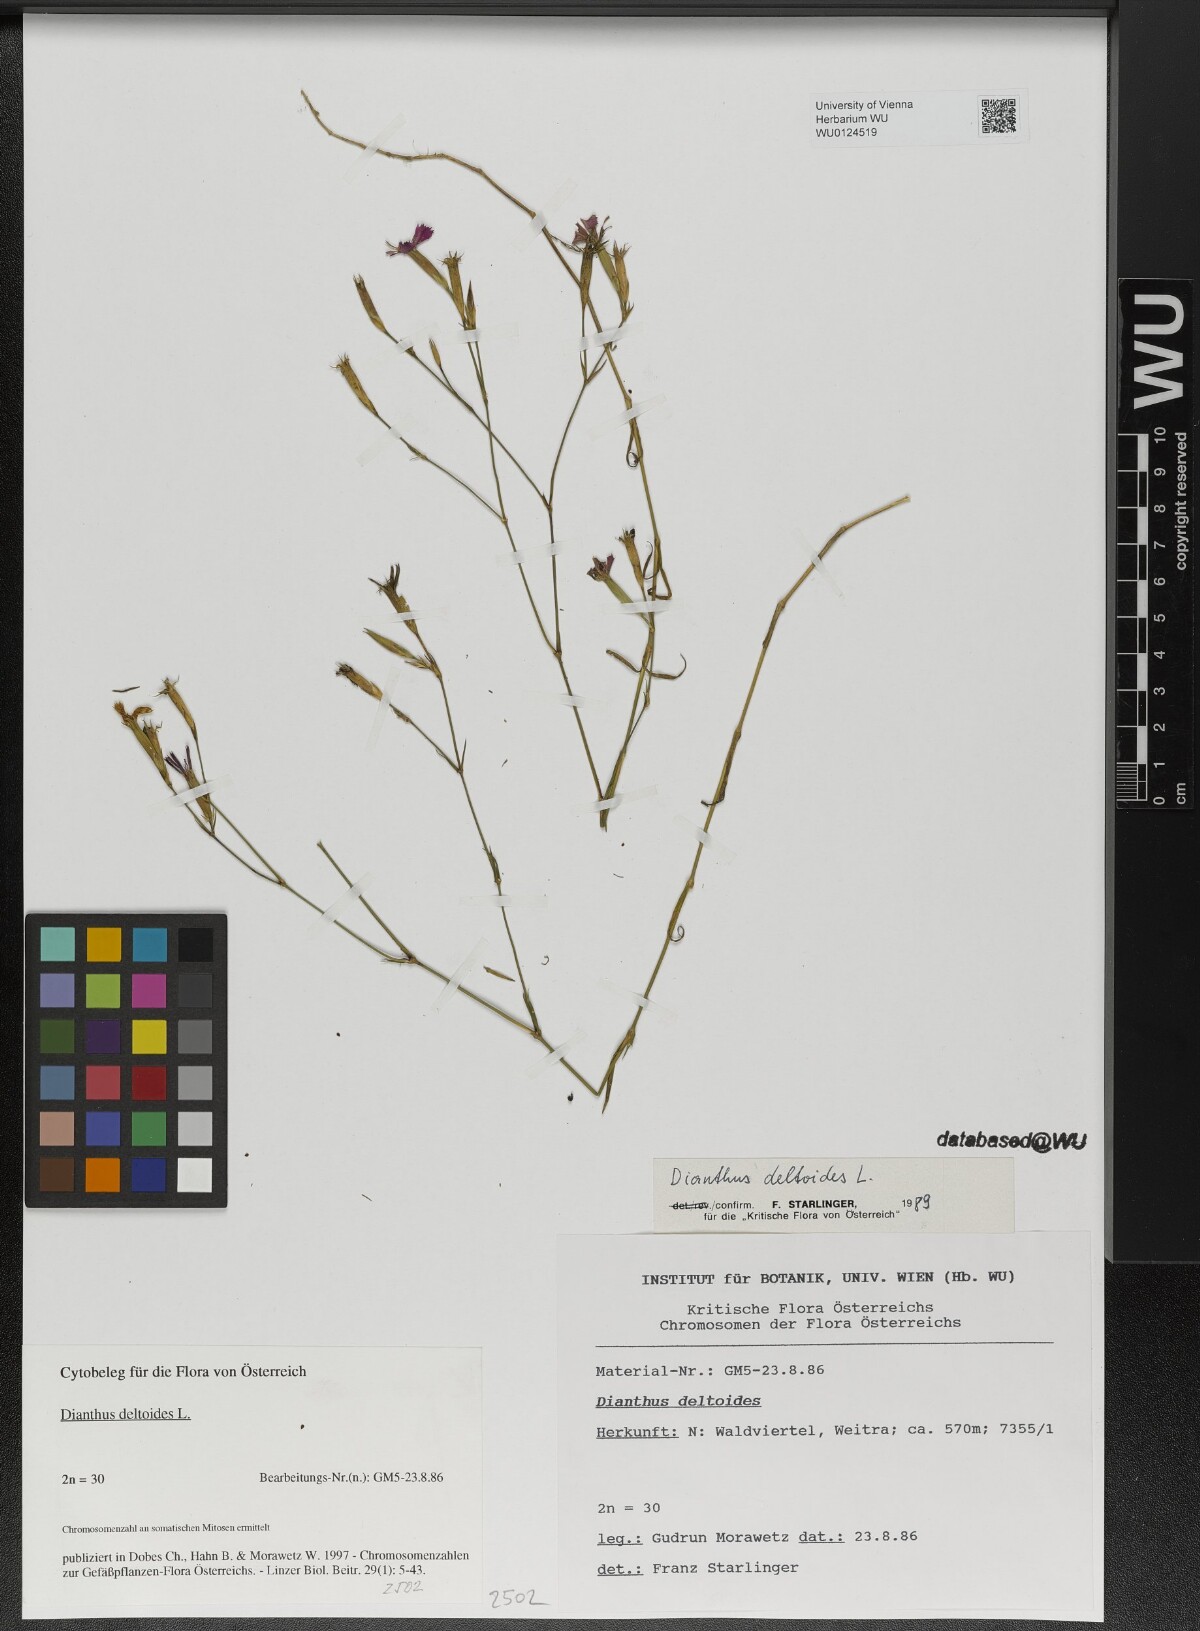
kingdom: Plantae
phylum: Tracheophyta
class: Magnoliopsida
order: Caryophyllales
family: Caryophyllaceae
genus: Dianthus
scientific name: Dianthus deltoides
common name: Maiden pink
